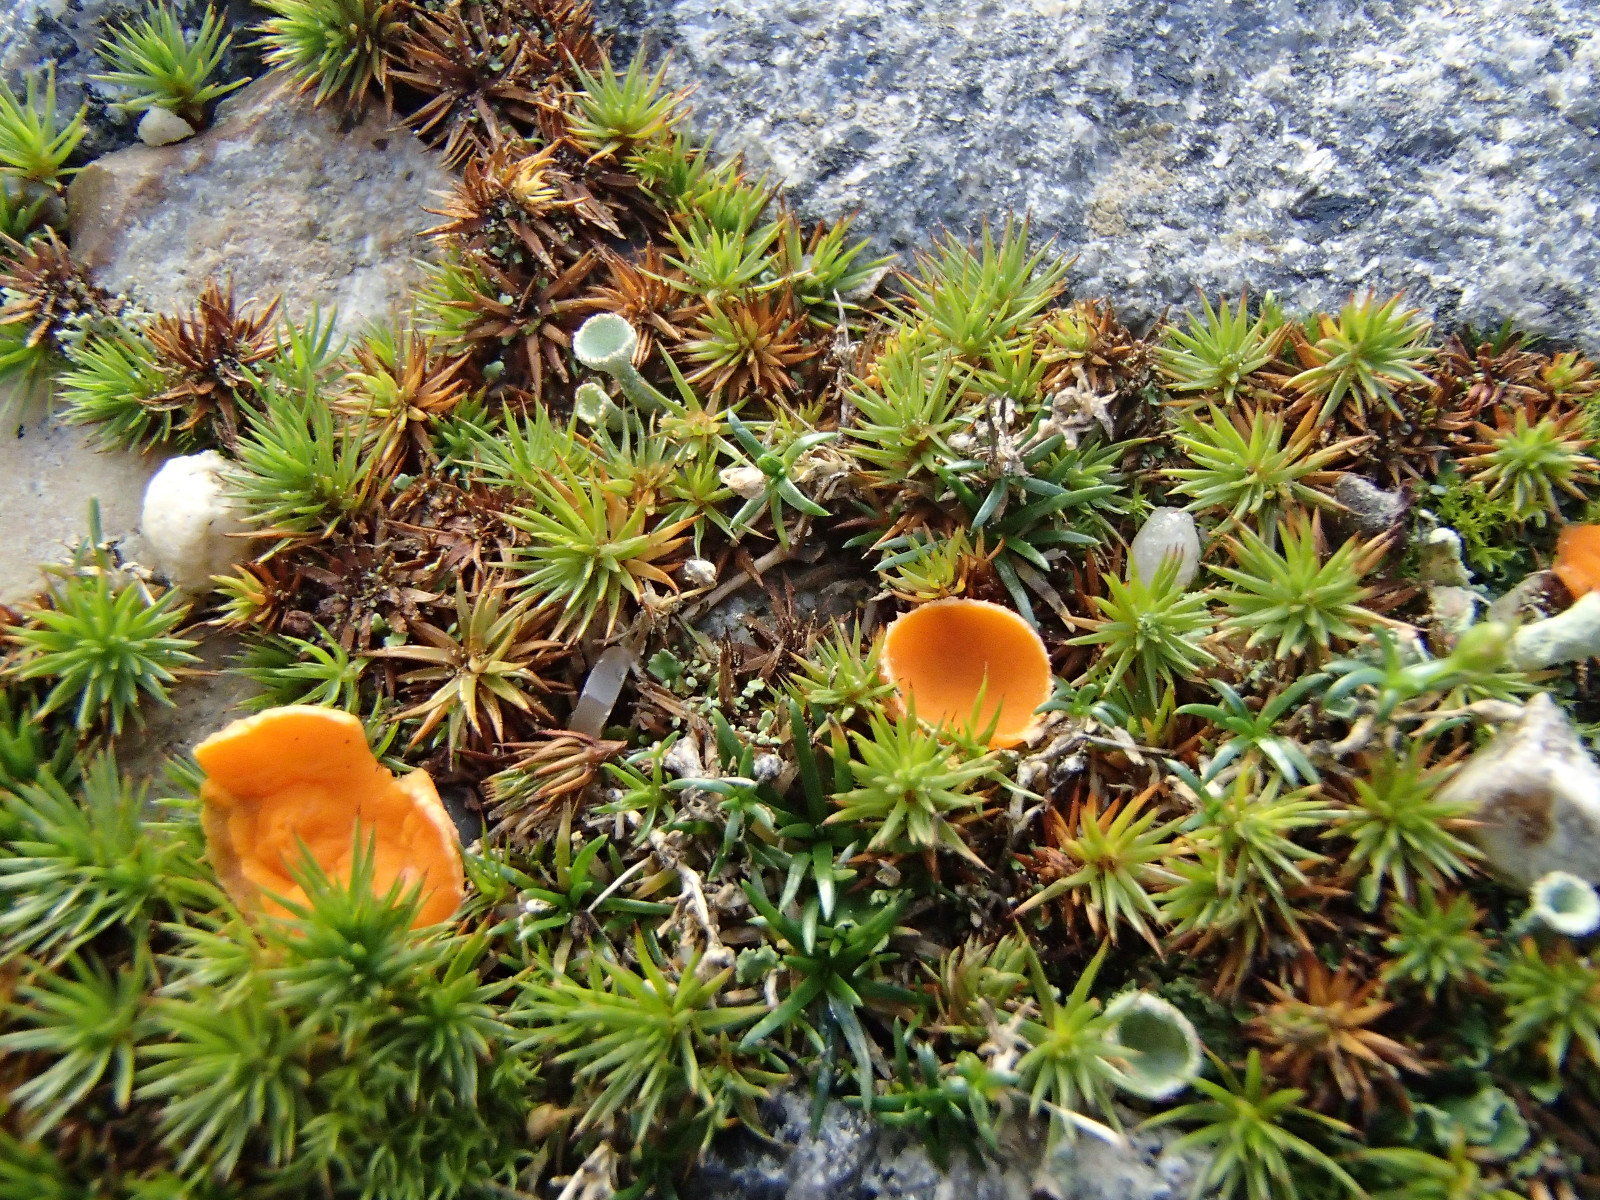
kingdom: Fungi
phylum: Ascomycota
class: Pezizomycetes
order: Pezizales
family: Pyronemataceae
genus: Neottiella
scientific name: Neottiella
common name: mosbæger
